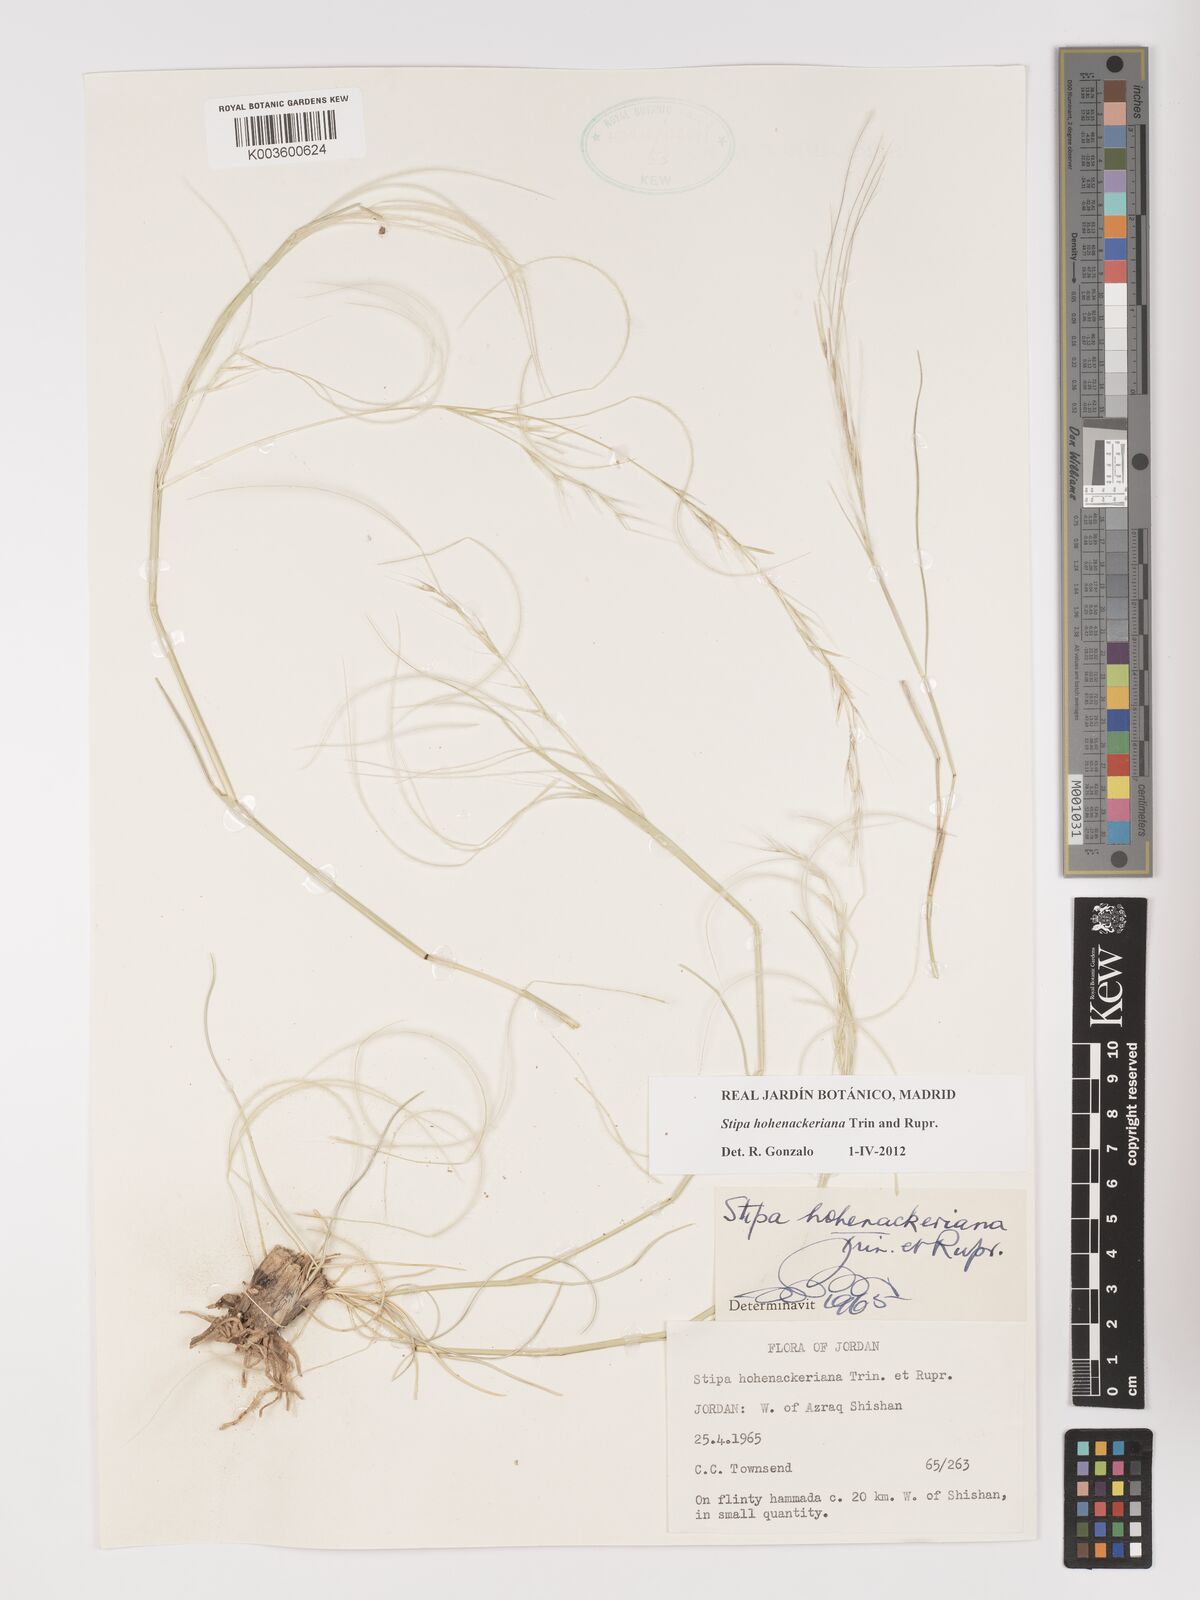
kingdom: Plantae
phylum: Tracheophyta
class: Liliopsida
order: Poales
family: Poaceae
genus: Stipa
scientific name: Stipa hohenackeriana
